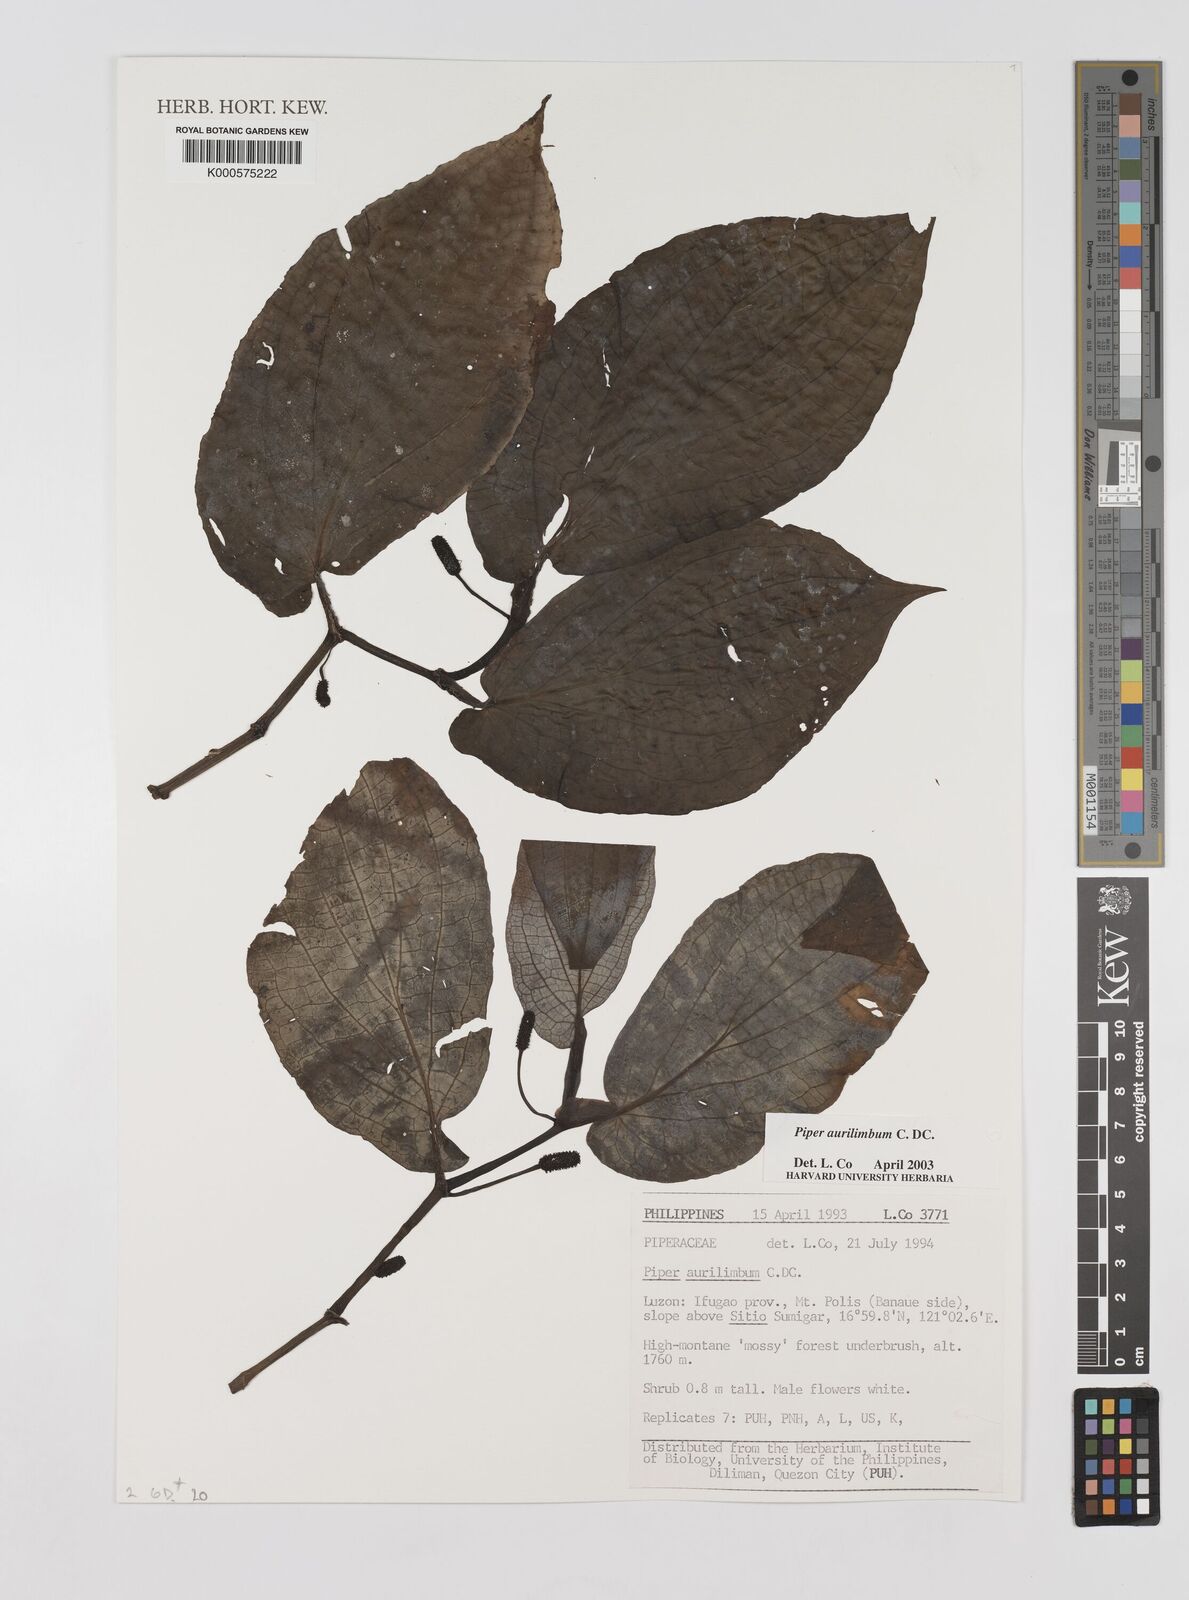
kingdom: Plantae
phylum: Tracheophyta
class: Magnoliopsida
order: Piperales
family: Piperaceae
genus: Piper
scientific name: Piper aurilimbum
